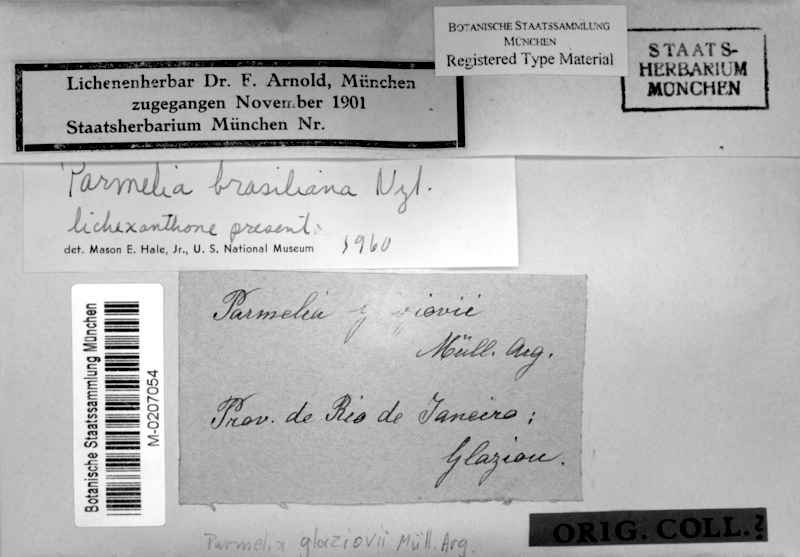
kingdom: Fungi
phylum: Ascomycota
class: Lecanoromycetes
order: Lecanorales
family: Parmeliaceae
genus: Hypotrachyna
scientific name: Hypotrachyna brasiliana
